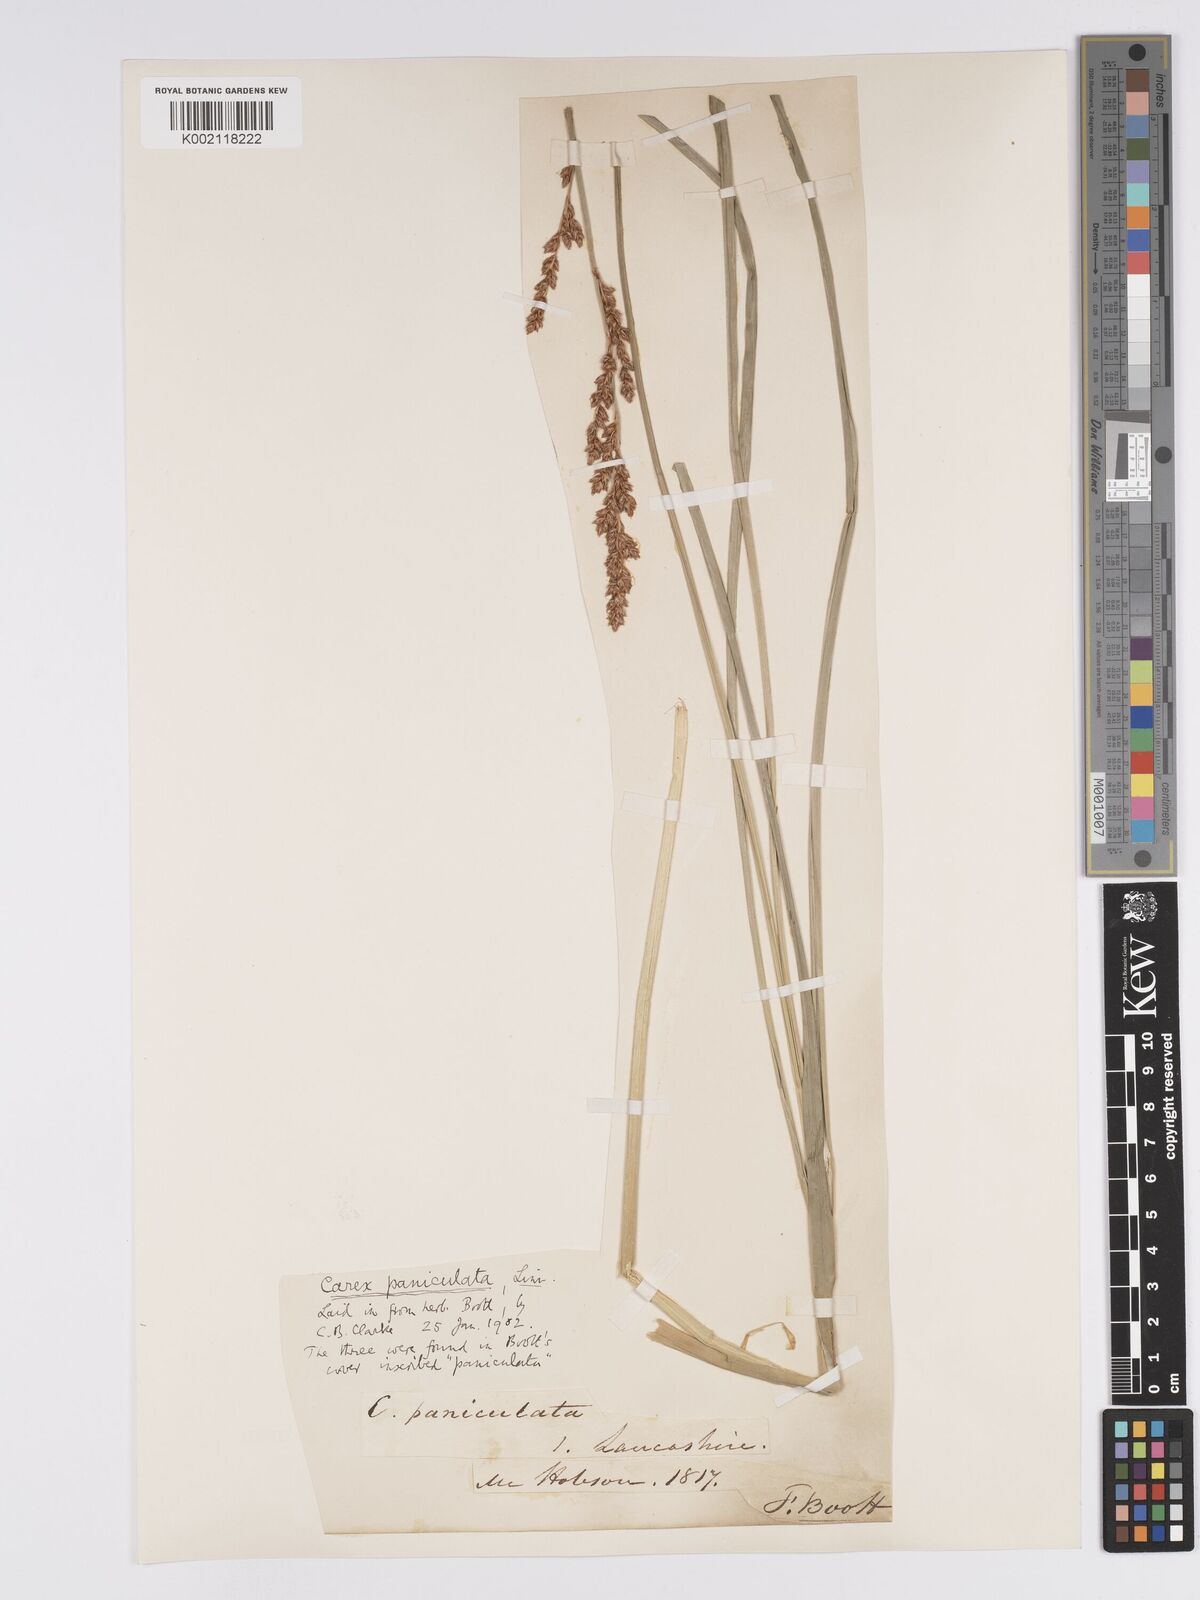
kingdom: Plantae
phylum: Tracheophyta
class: Liliopsida
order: Poales
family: Cyperaceae
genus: Carex
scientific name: Carex
